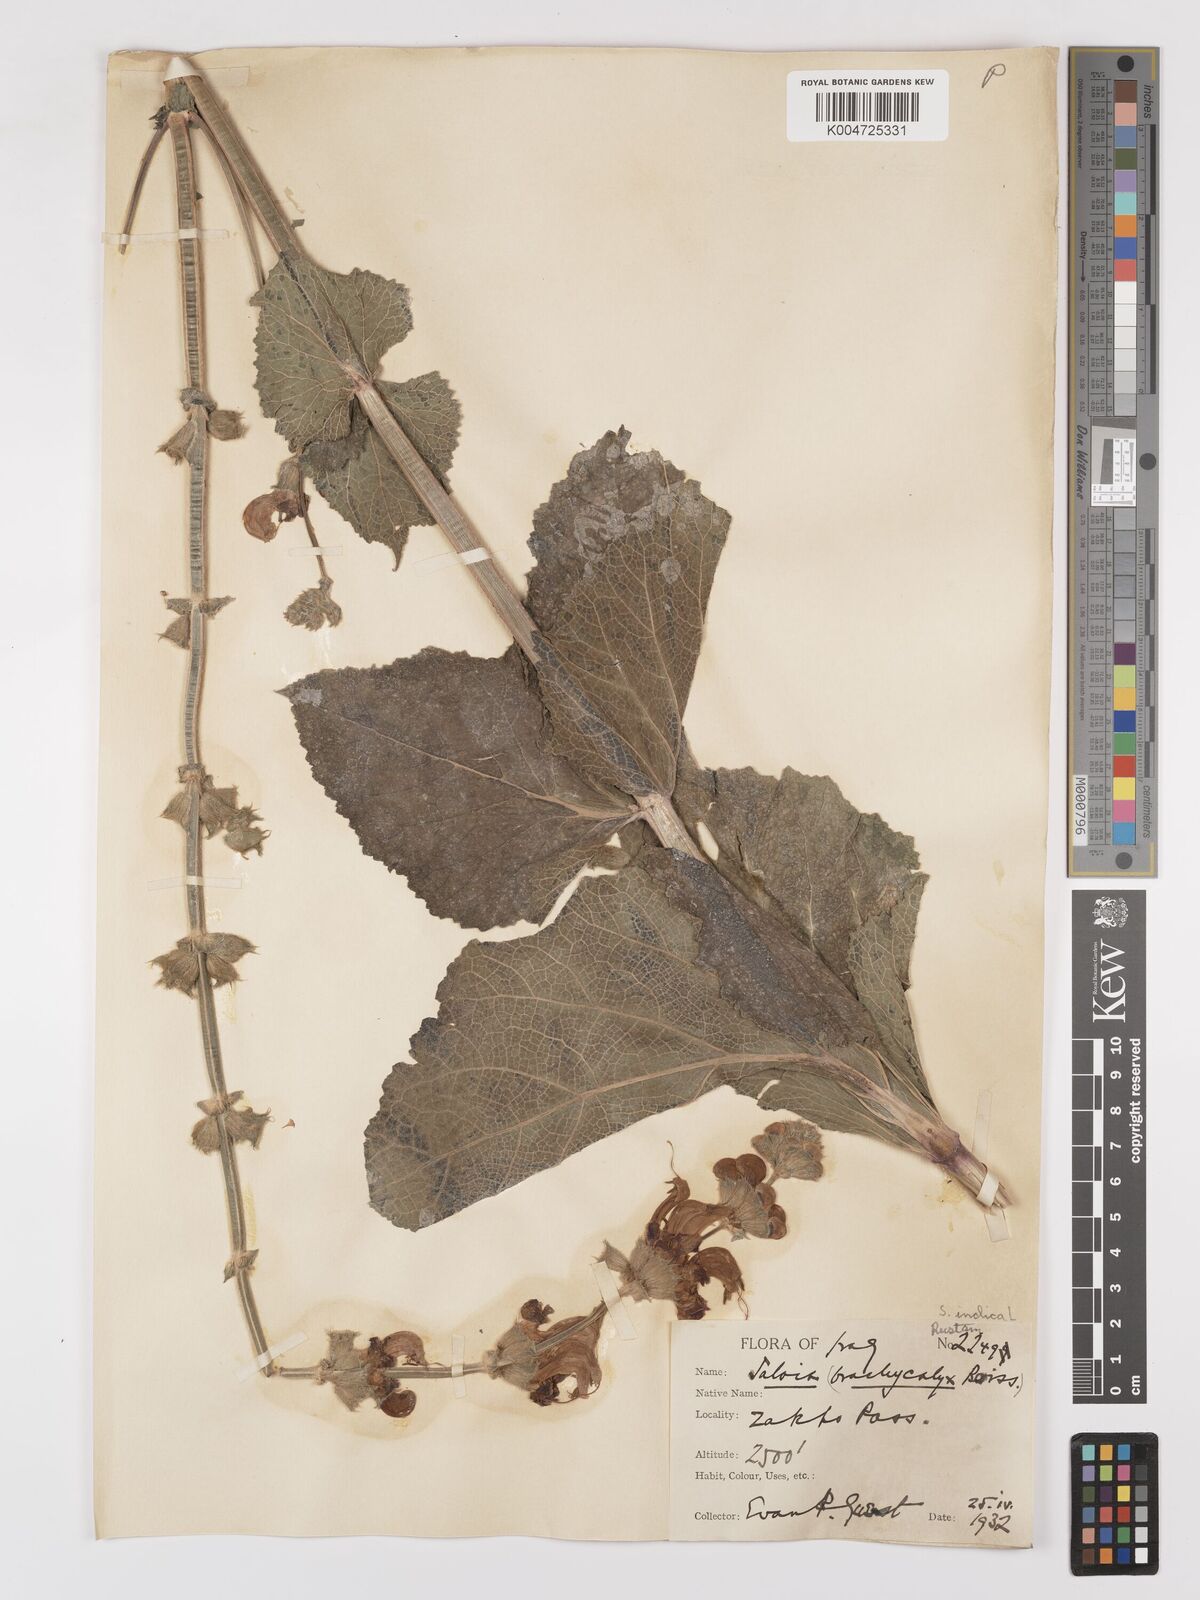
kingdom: Plantae
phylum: Tracheophyta
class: Magnoliopsida
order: Lamiales
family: Lamiaceae
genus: Salvia
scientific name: Salvia indica
